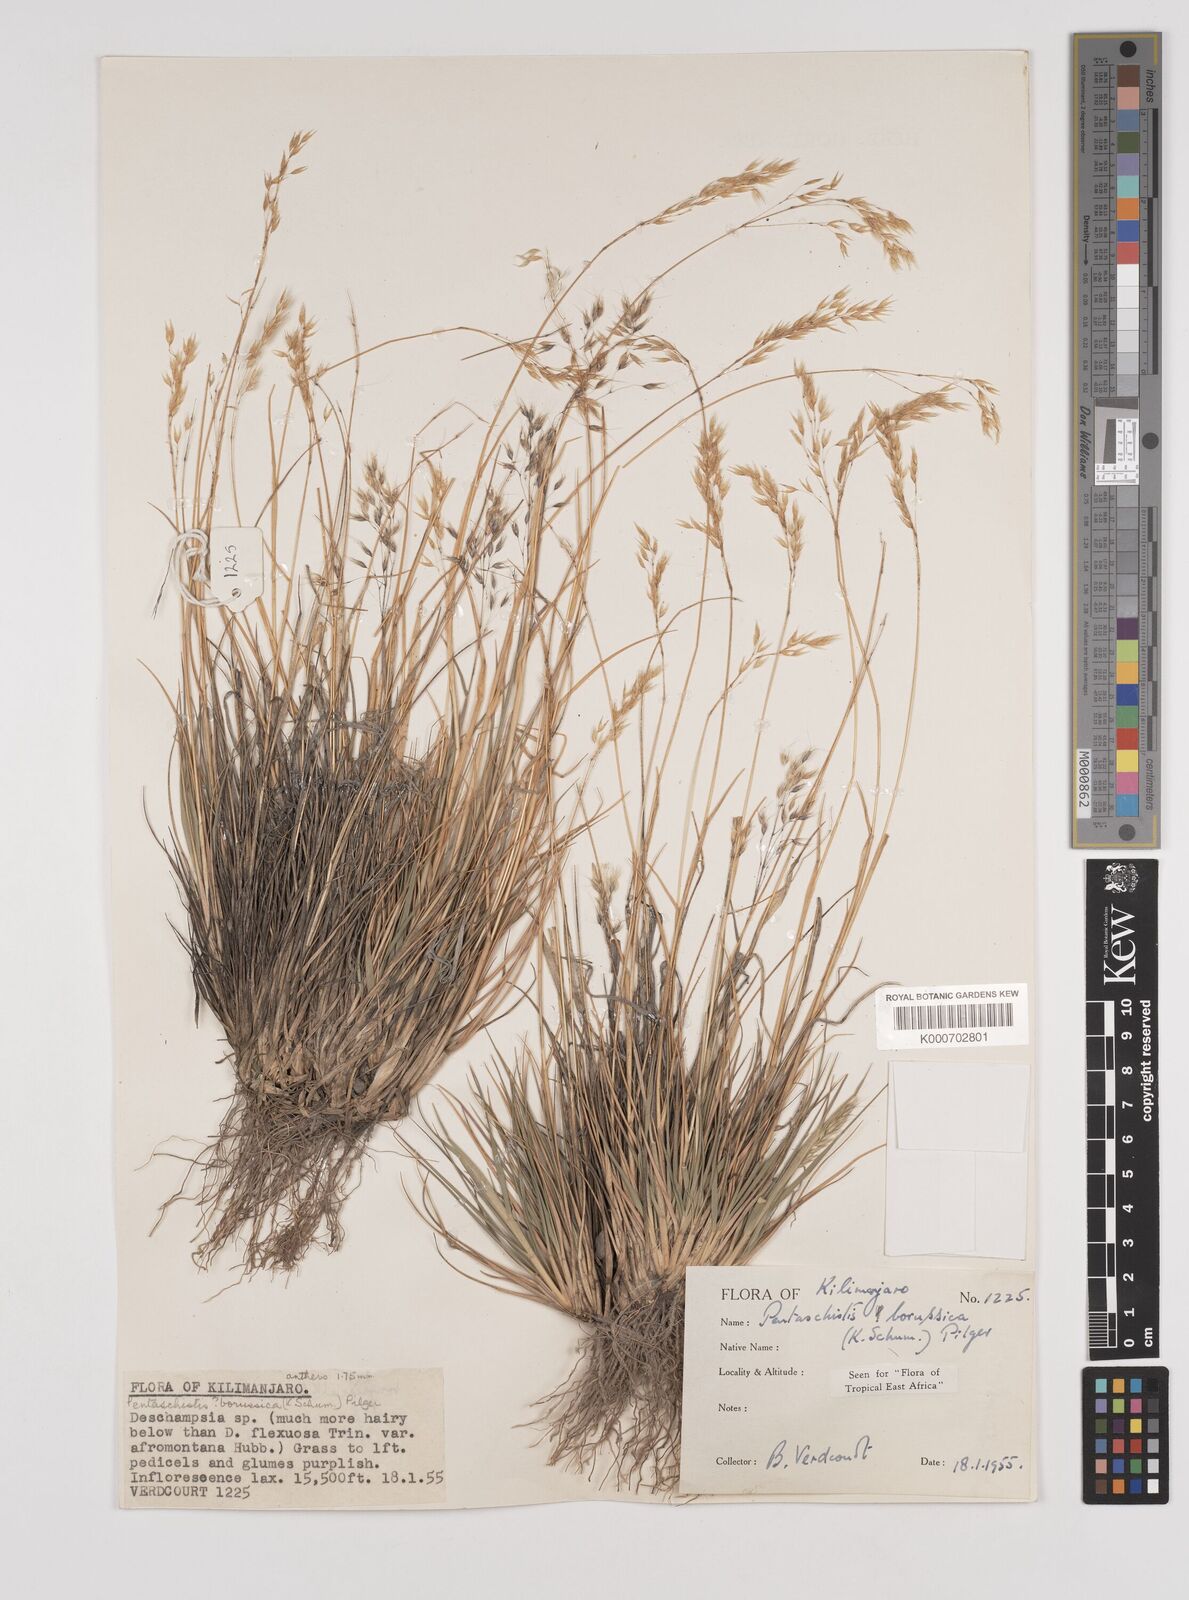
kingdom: Plantae
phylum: Tracheophyta
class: Liliopsida
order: Poales
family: Poaceae
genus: Pentameris
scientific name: Pentameris borussica
